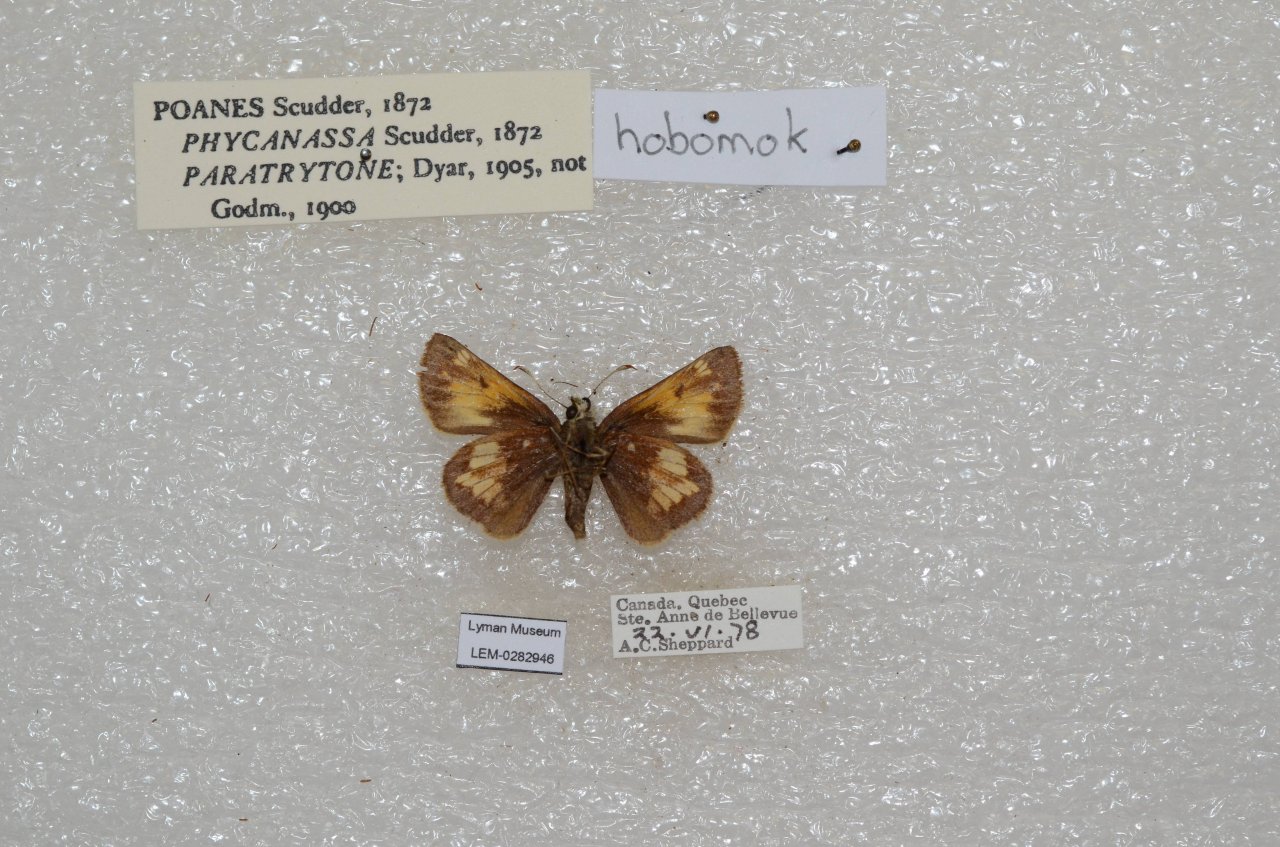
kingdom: Animalia
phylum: Arthropoda
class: Insecta
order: Lepidoptera
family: Hesperiidae
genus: Lon
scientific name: Lon hobomok
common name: Hobomok Skipper
